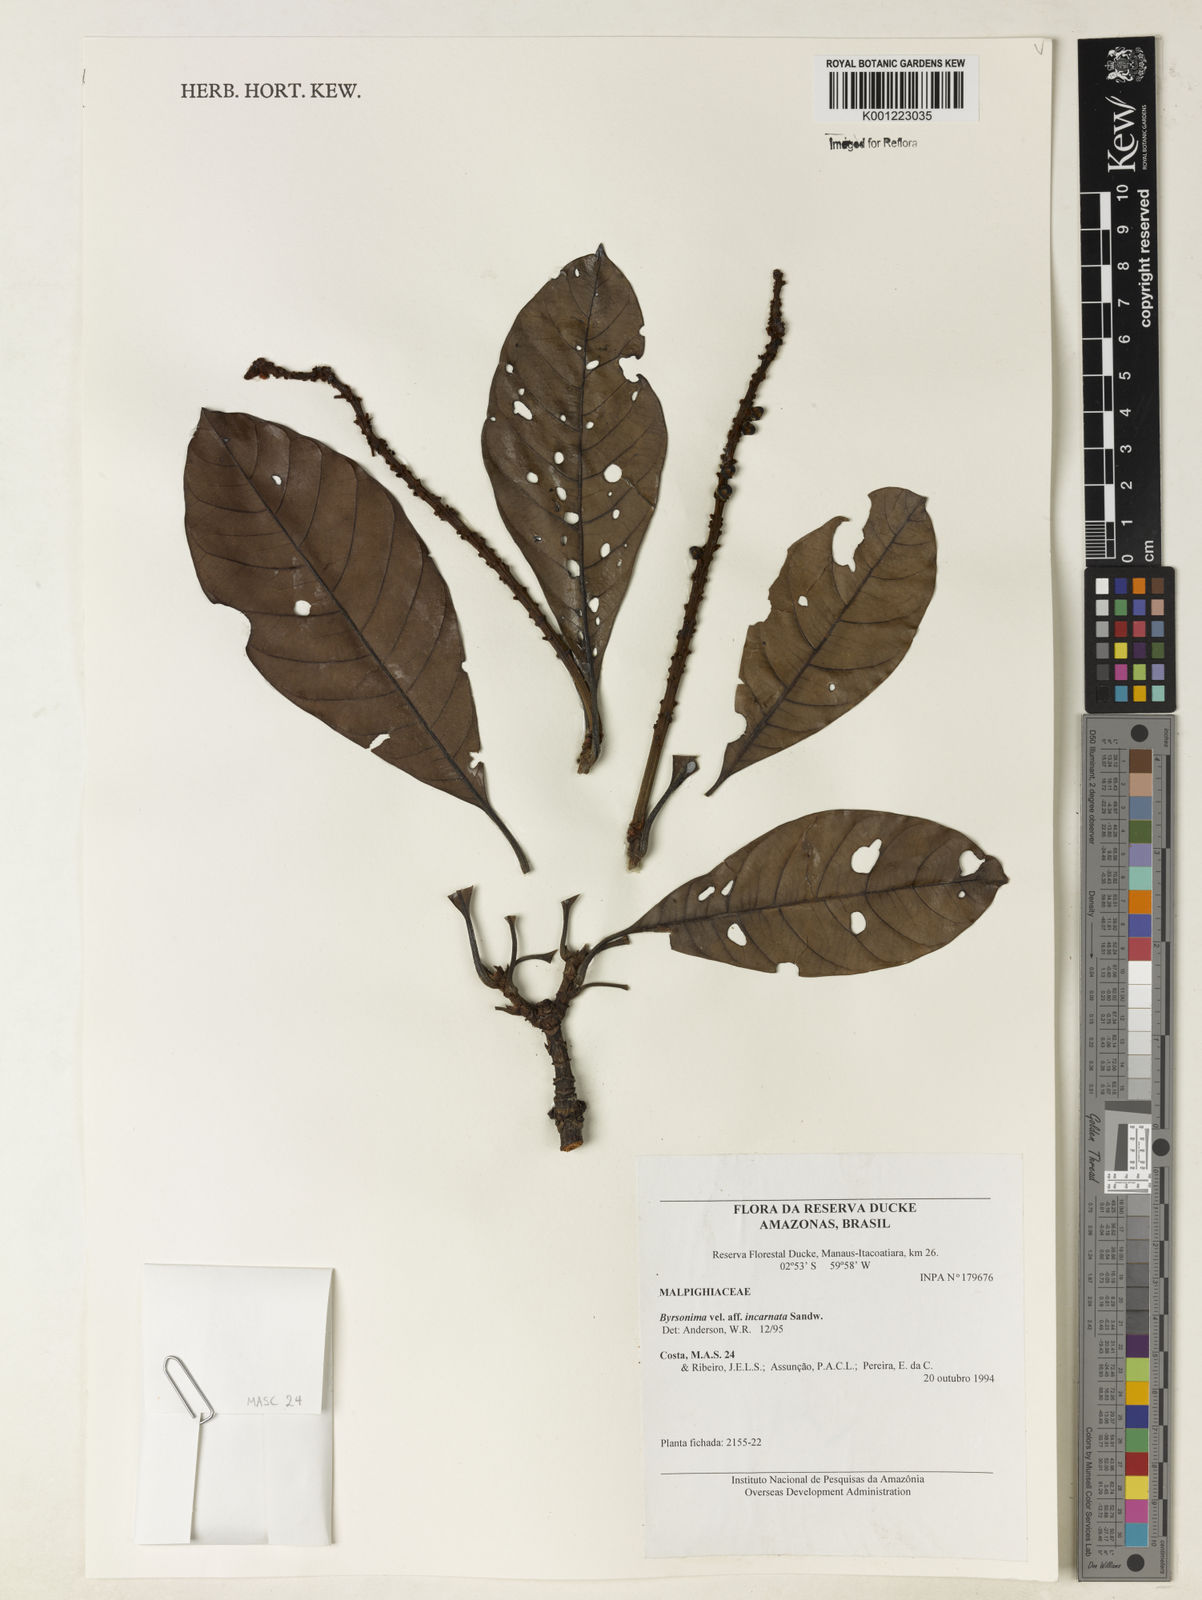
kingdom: Plantae
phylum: Tracheophyta
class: Magnoliopsida
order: Malpighiales
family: Malpighiaceae
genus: Byrsonima
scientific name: Byrsonima incarnata
